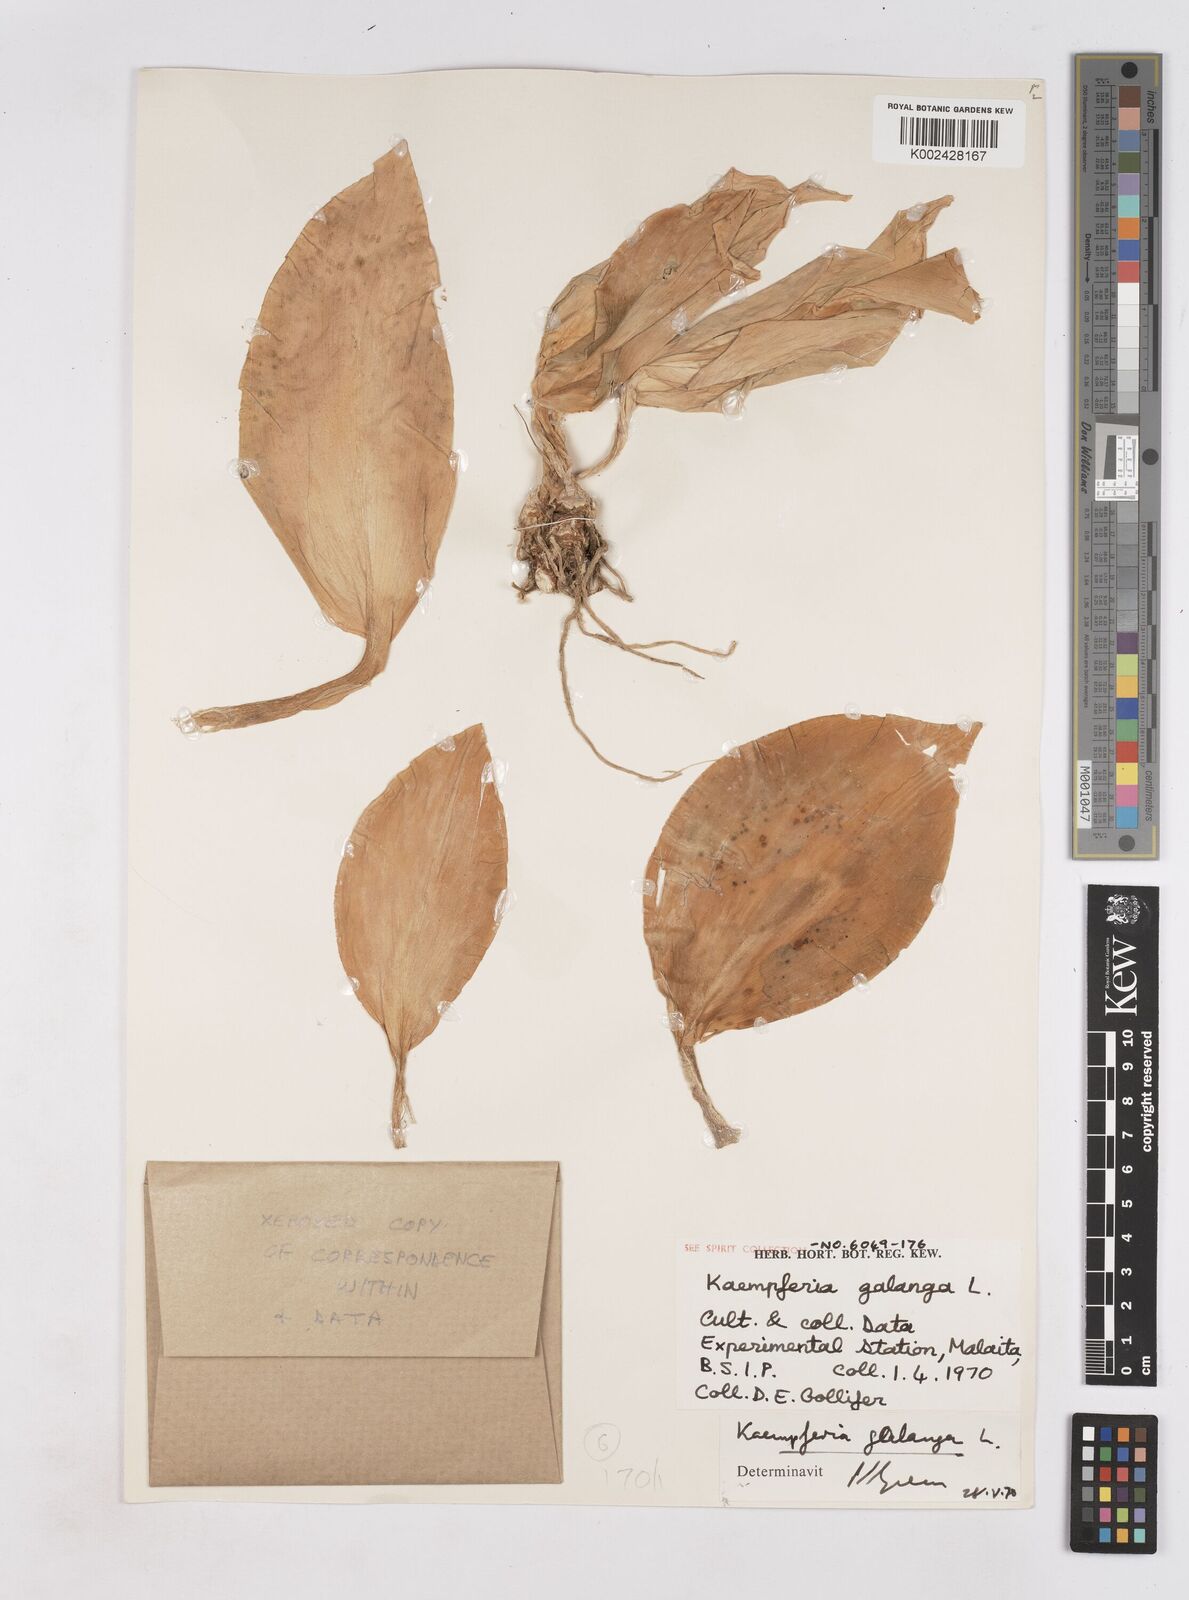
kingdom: Plantae
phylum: Tracheophyta
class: Liliopsida
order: Zingiberales
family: Zingiberaceae
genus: Kaempferia
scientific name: Kaempferia galanga
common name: Aromatic ginger
